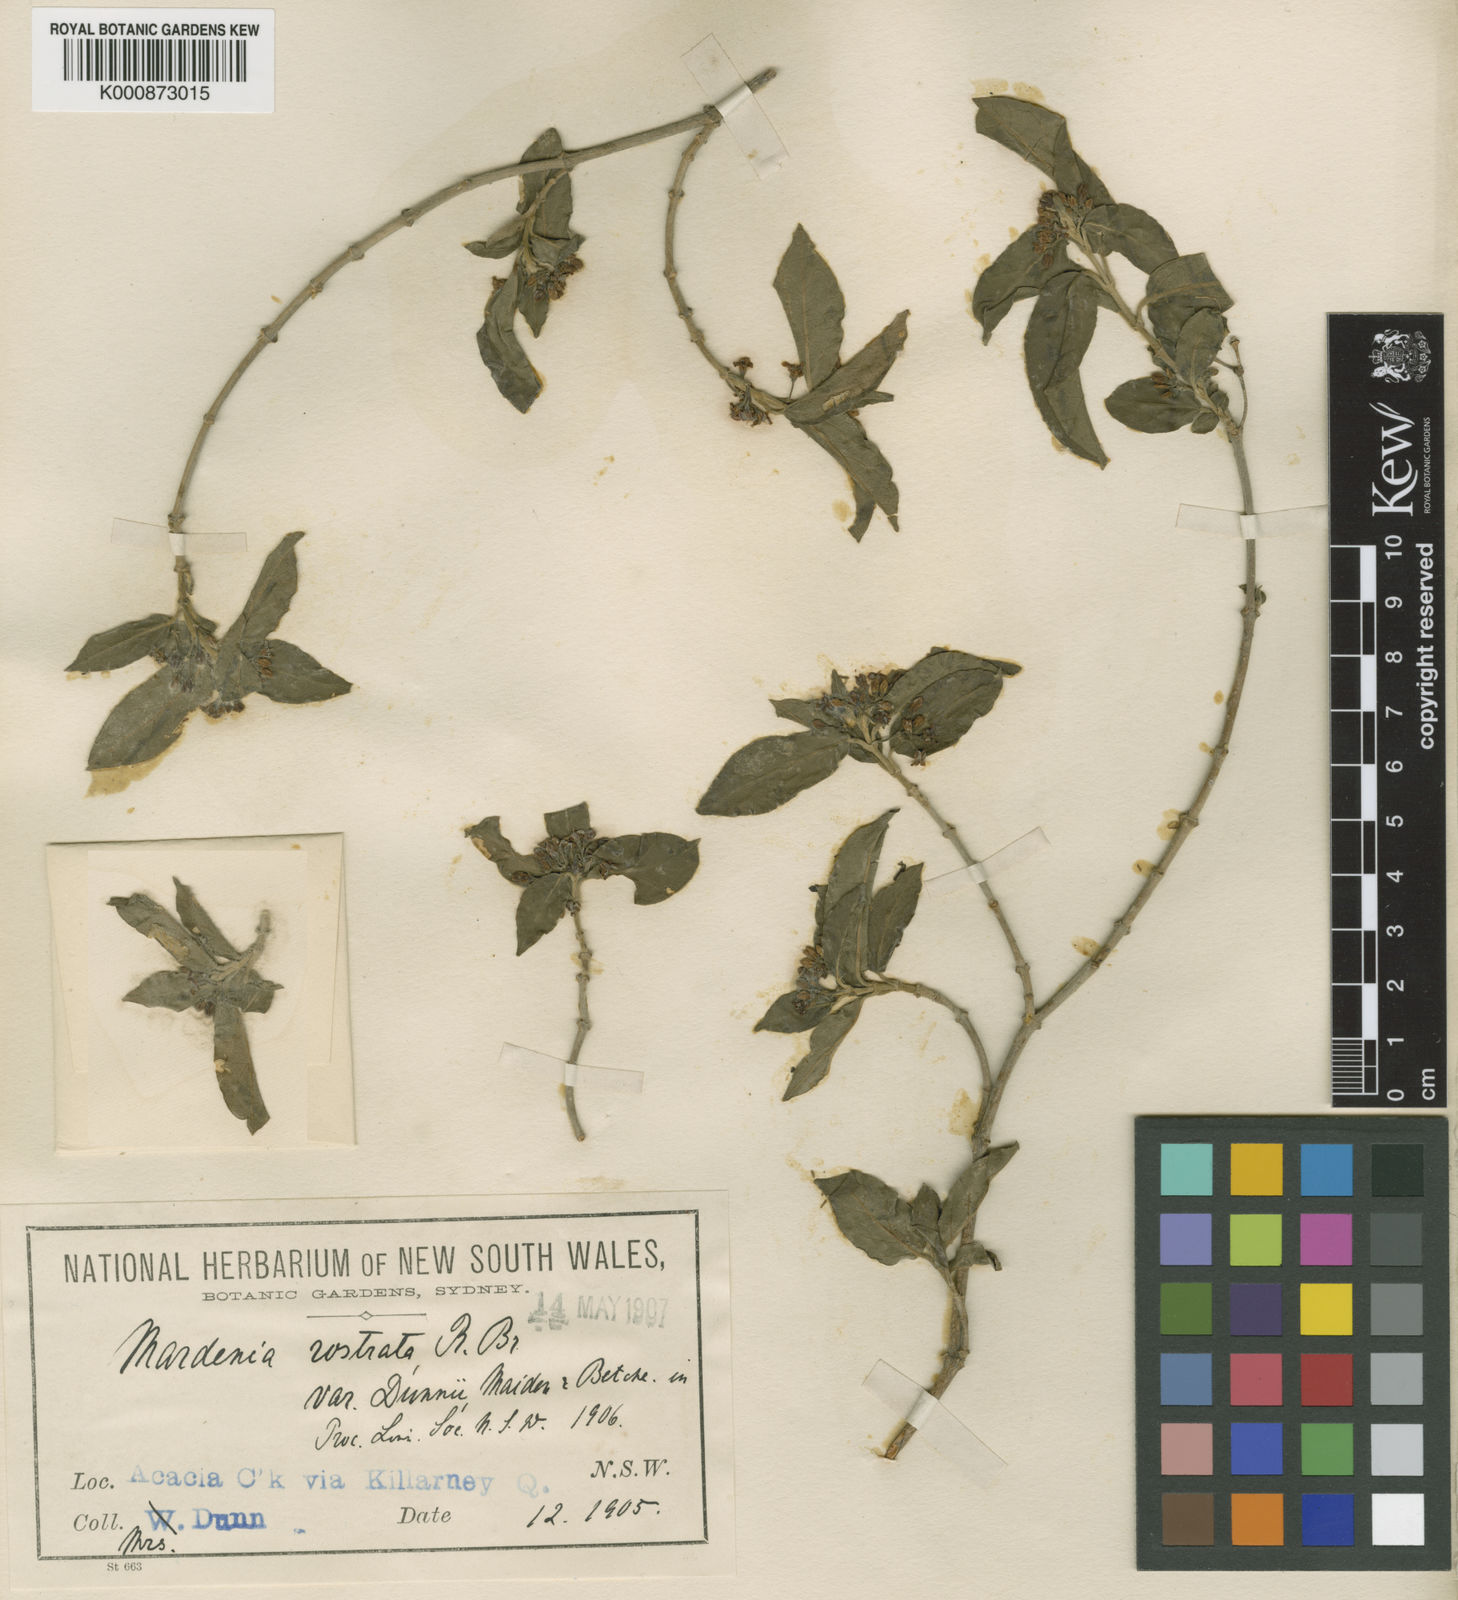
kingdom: Plantae
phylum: Tracheophyta
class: Magnoliopsida
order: Gentianales
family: Apocynaceae
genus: Gymnema
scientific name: Gymnema pleiadenium
